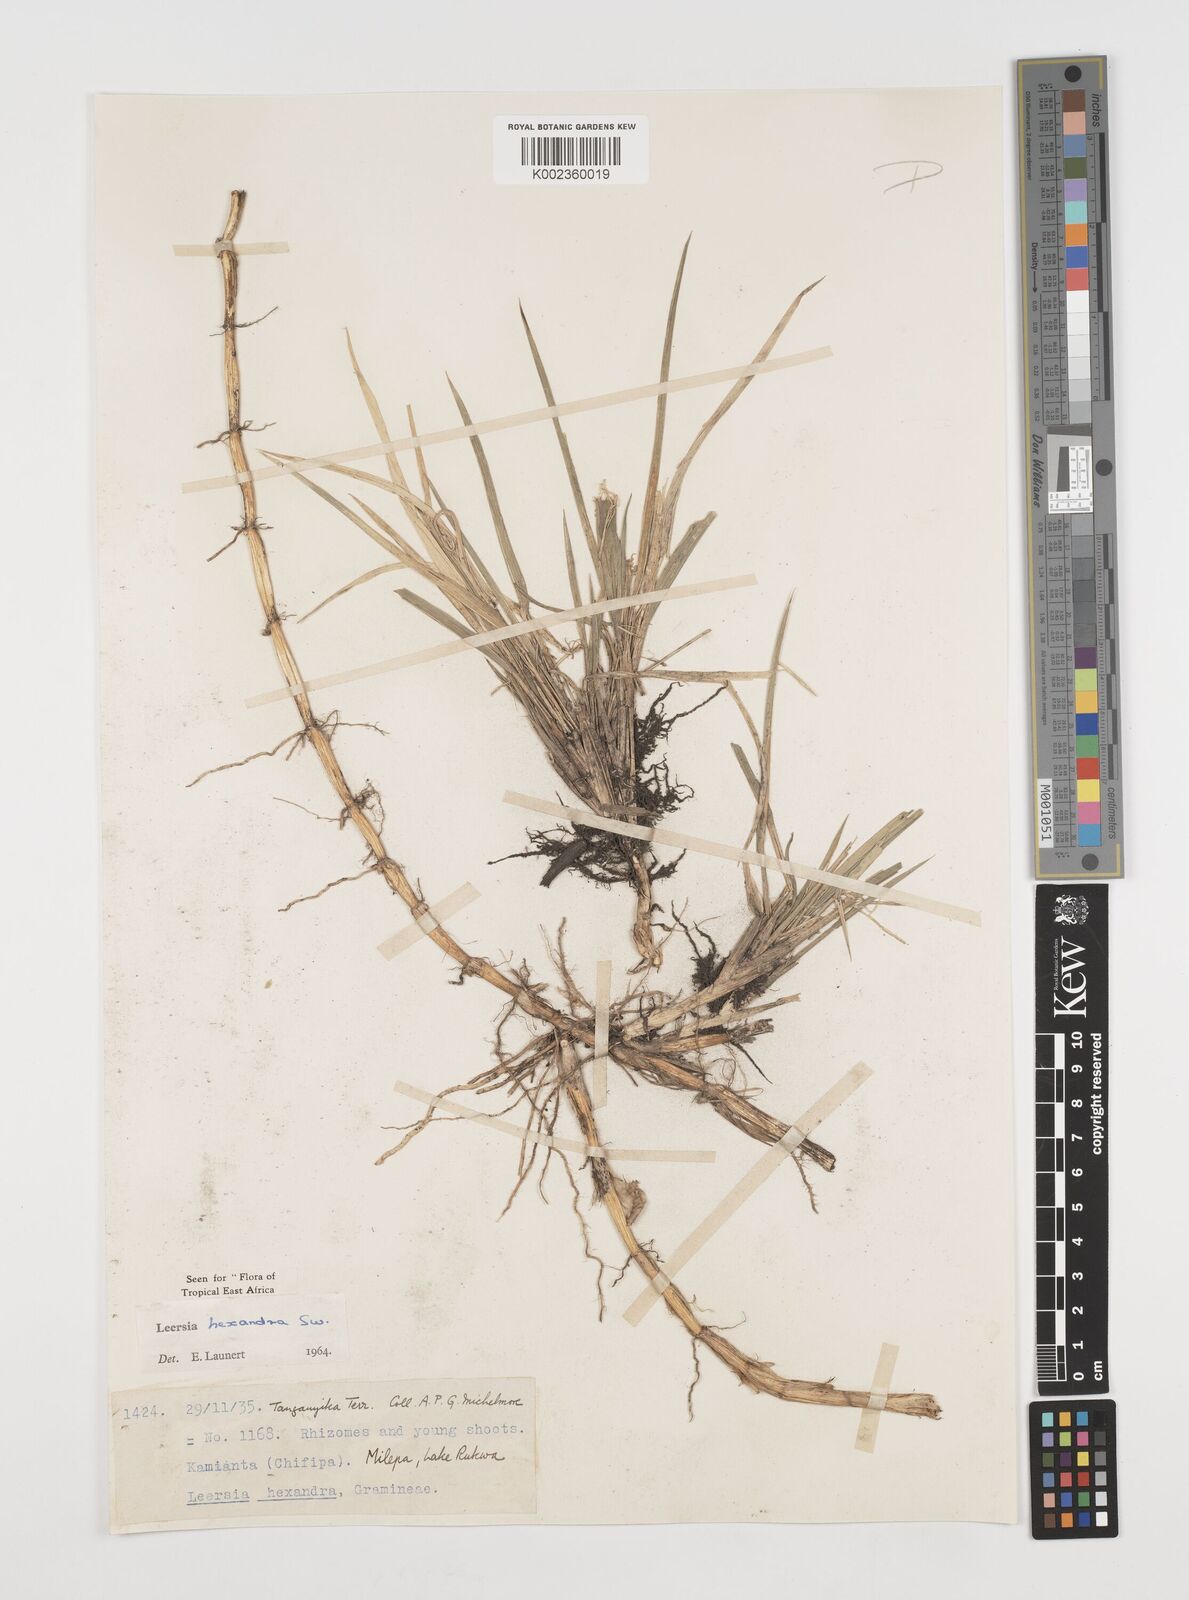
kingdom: Plantae
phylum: Tracheophyta
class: Liliopsida
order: Poales
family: Poaceae
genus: Leersia
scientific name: Leersia hexandra
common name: Southern cut grass
